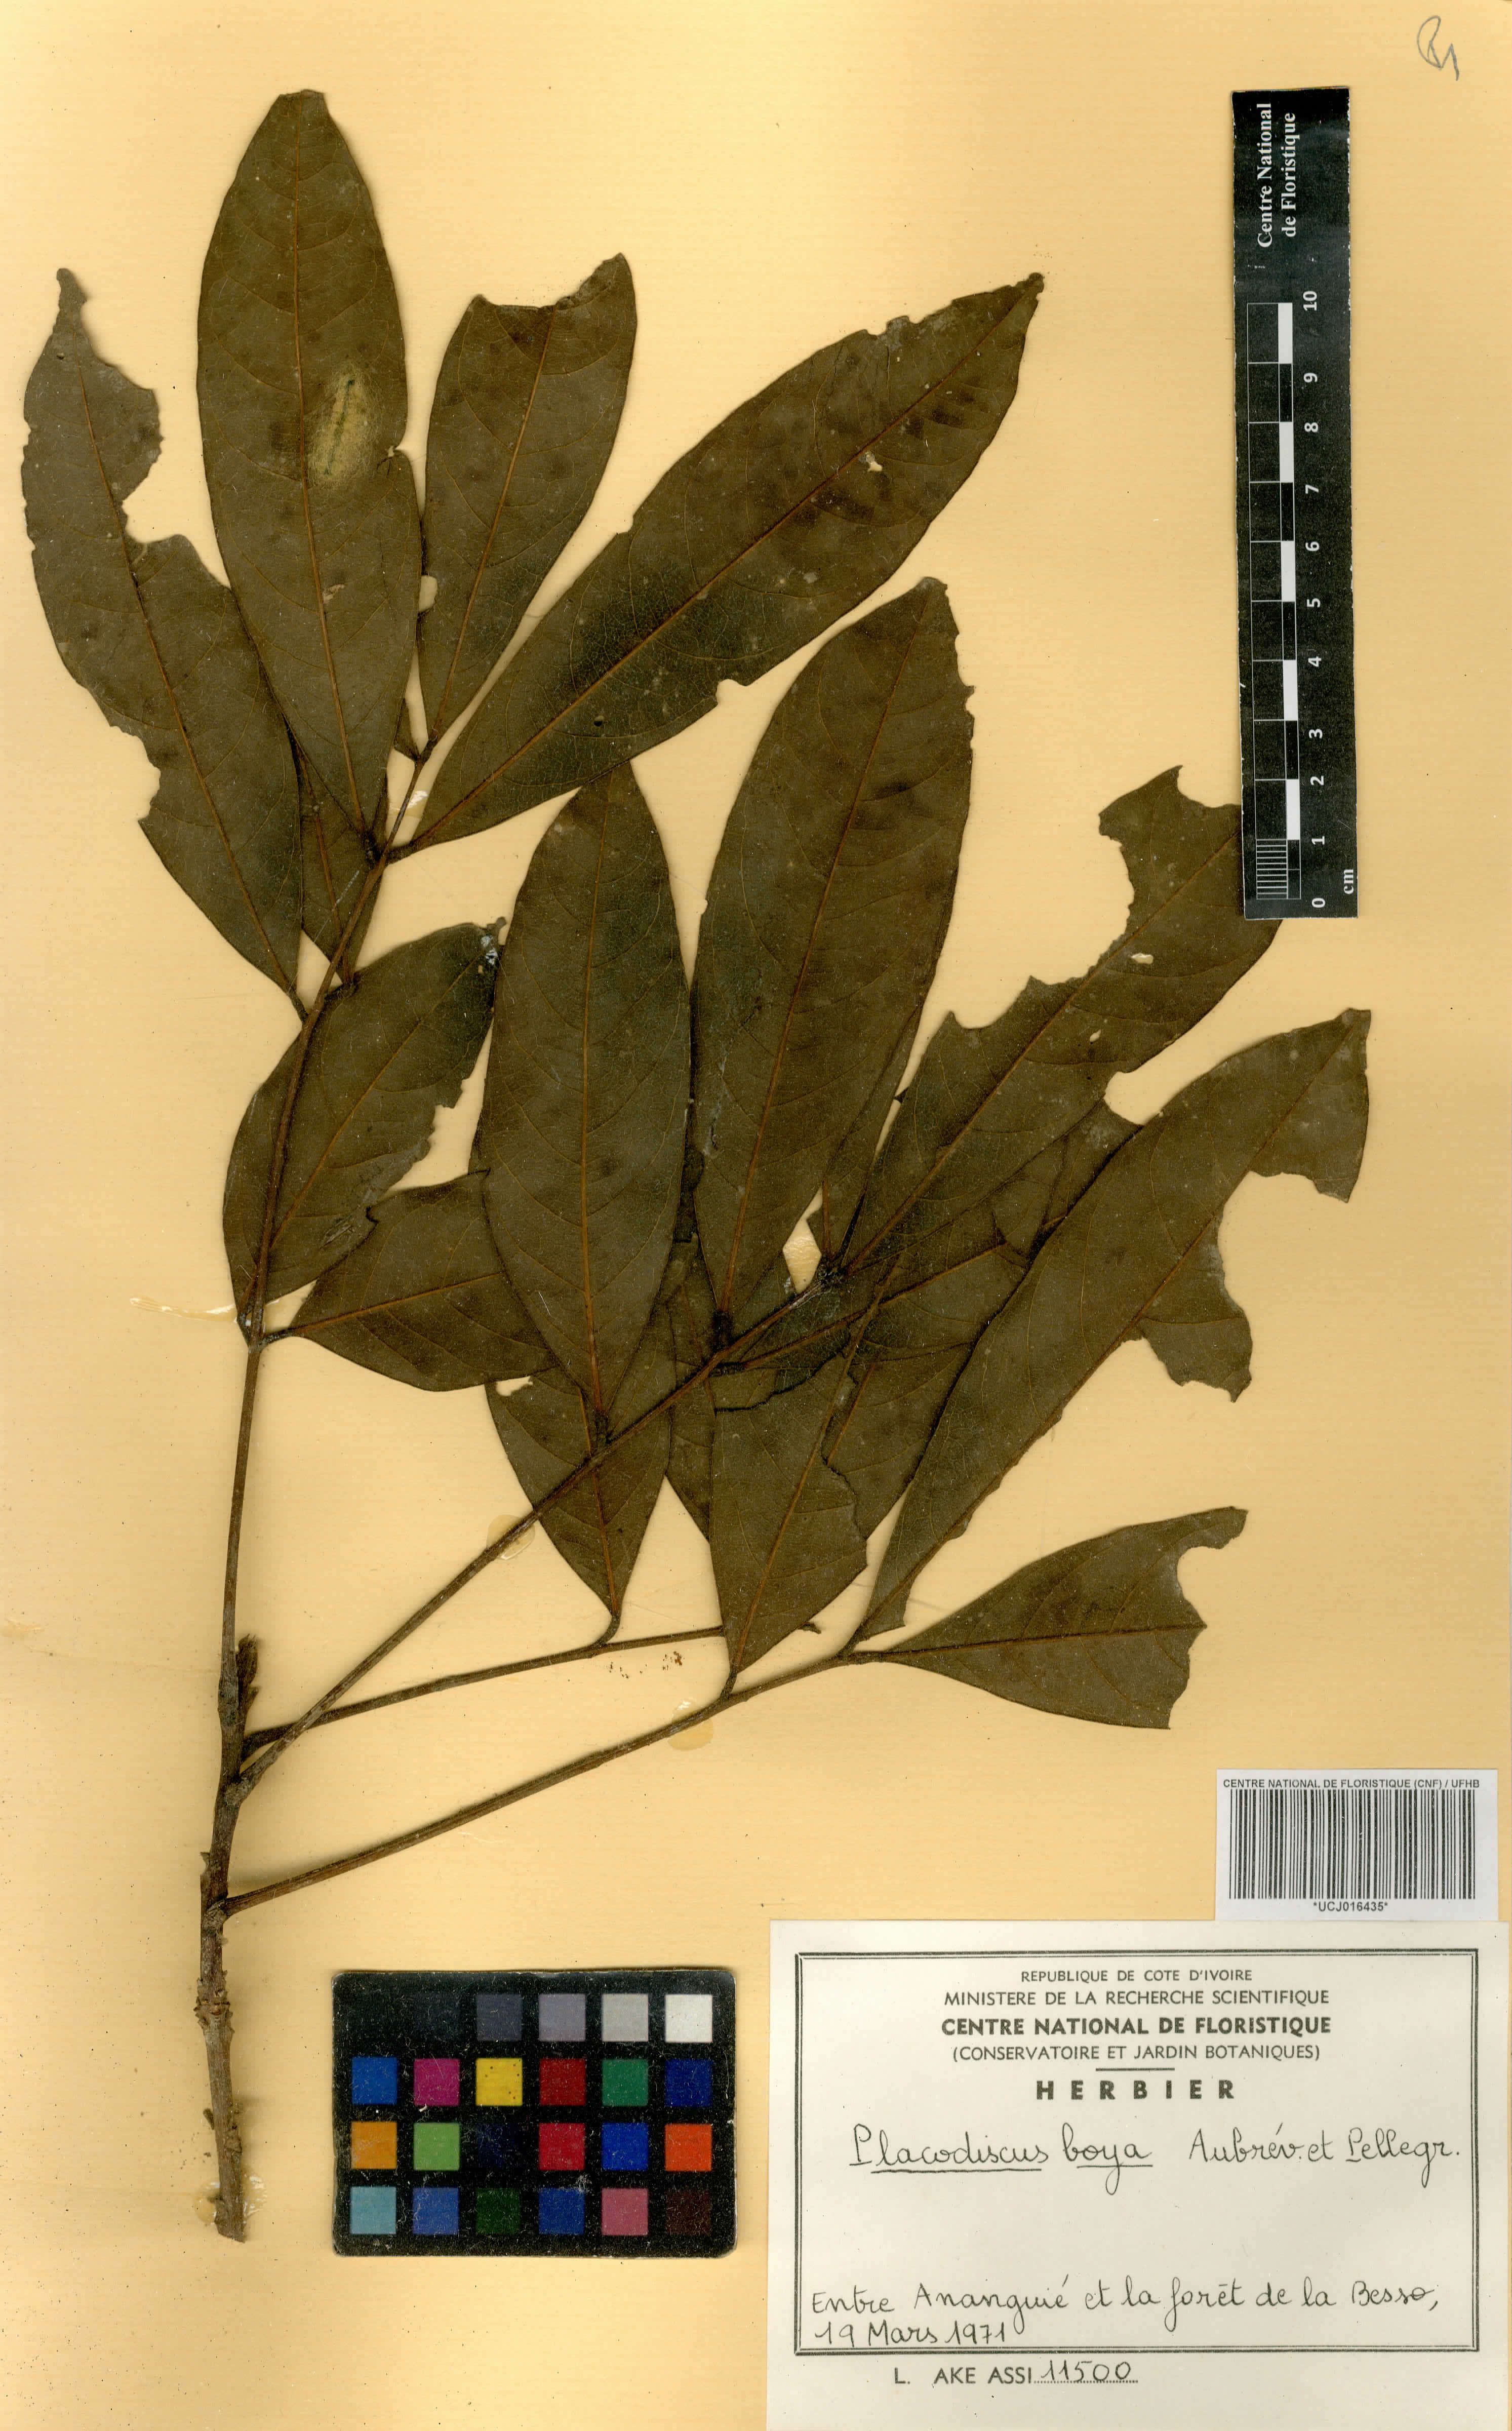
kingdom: Plantae
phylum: Tracheophyta
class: Magnoliopsida
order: Sapindales
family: Sapindaceae
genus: Placodiscus
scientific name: Placodiscus boya
